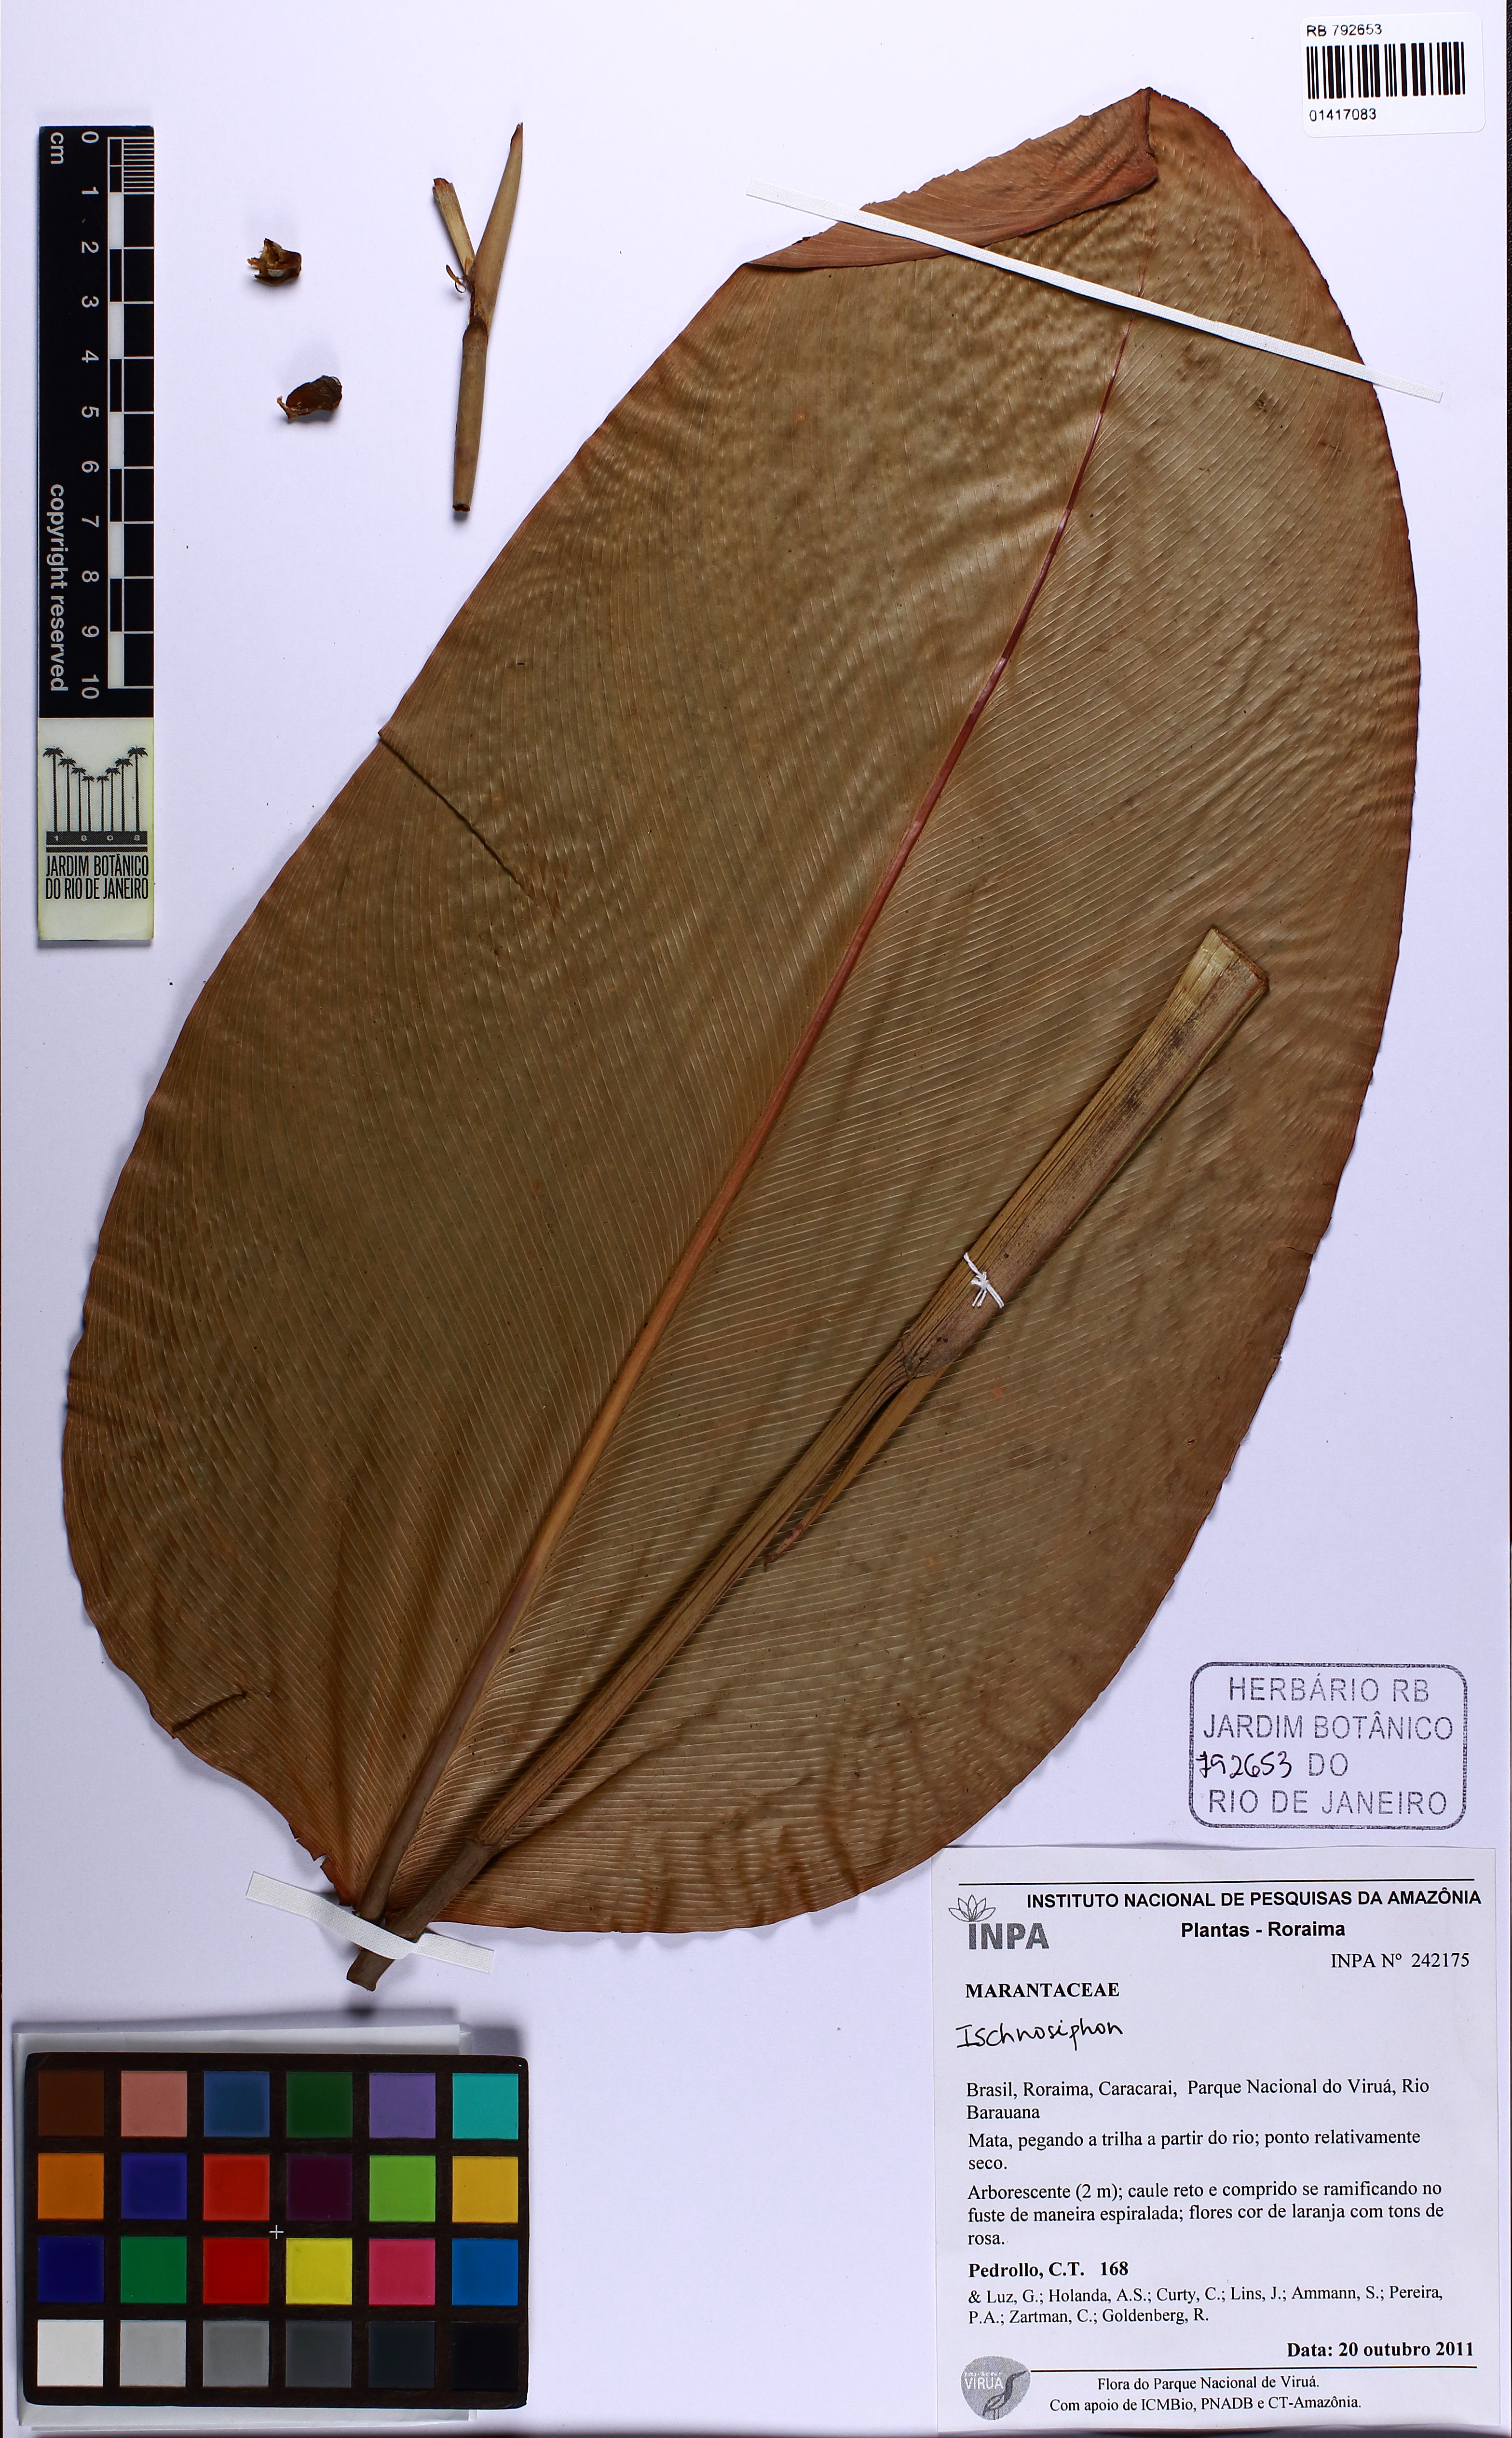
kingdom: Plantae
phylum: Tracheophyta
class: Liliopsida
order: Zingiberales
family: Marantaceae
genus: Ischnosiphon
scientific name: Ischnosiphon
